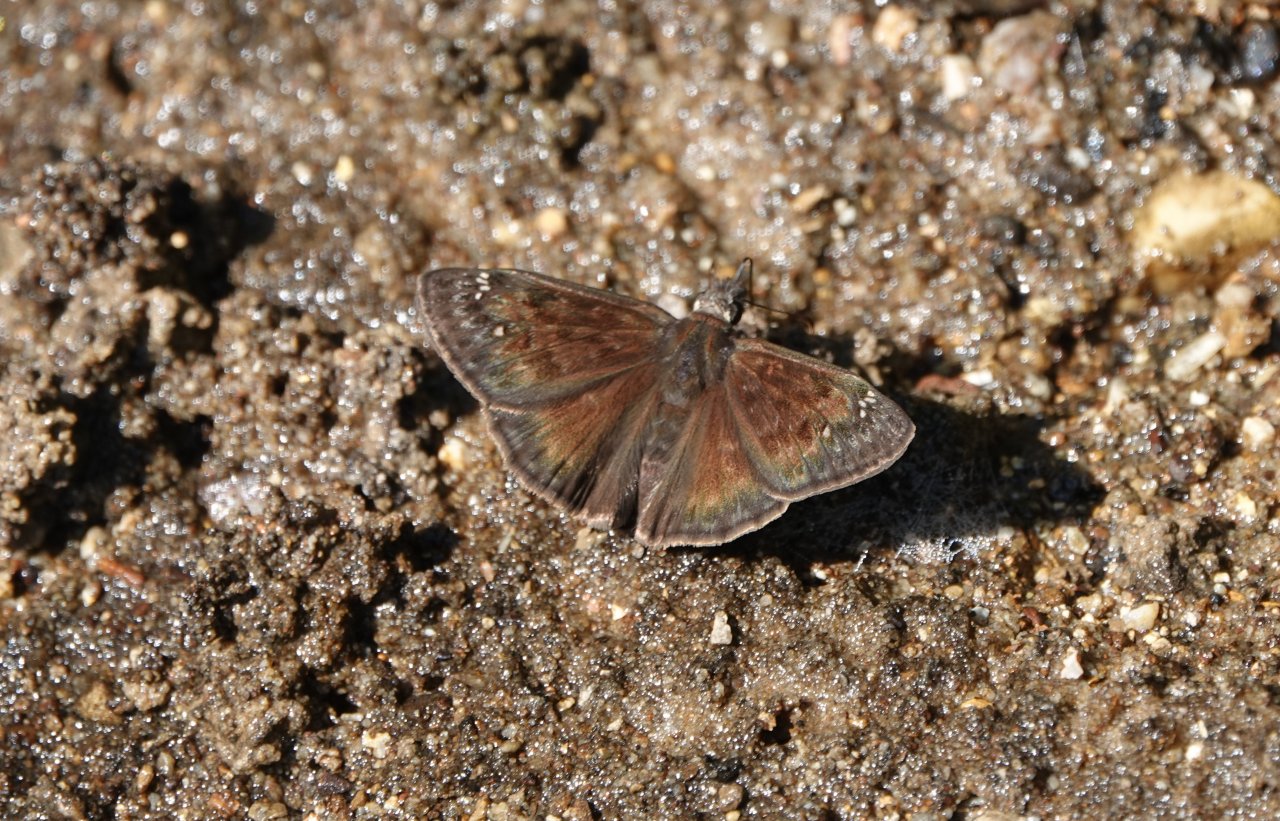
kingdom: Animalia
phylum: Arthropoda
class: Insecta
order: Lepidoptera
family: Hesperiidae
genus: Erynnis
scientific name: Erynnis zarucco
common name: Zarucco Duskywing
